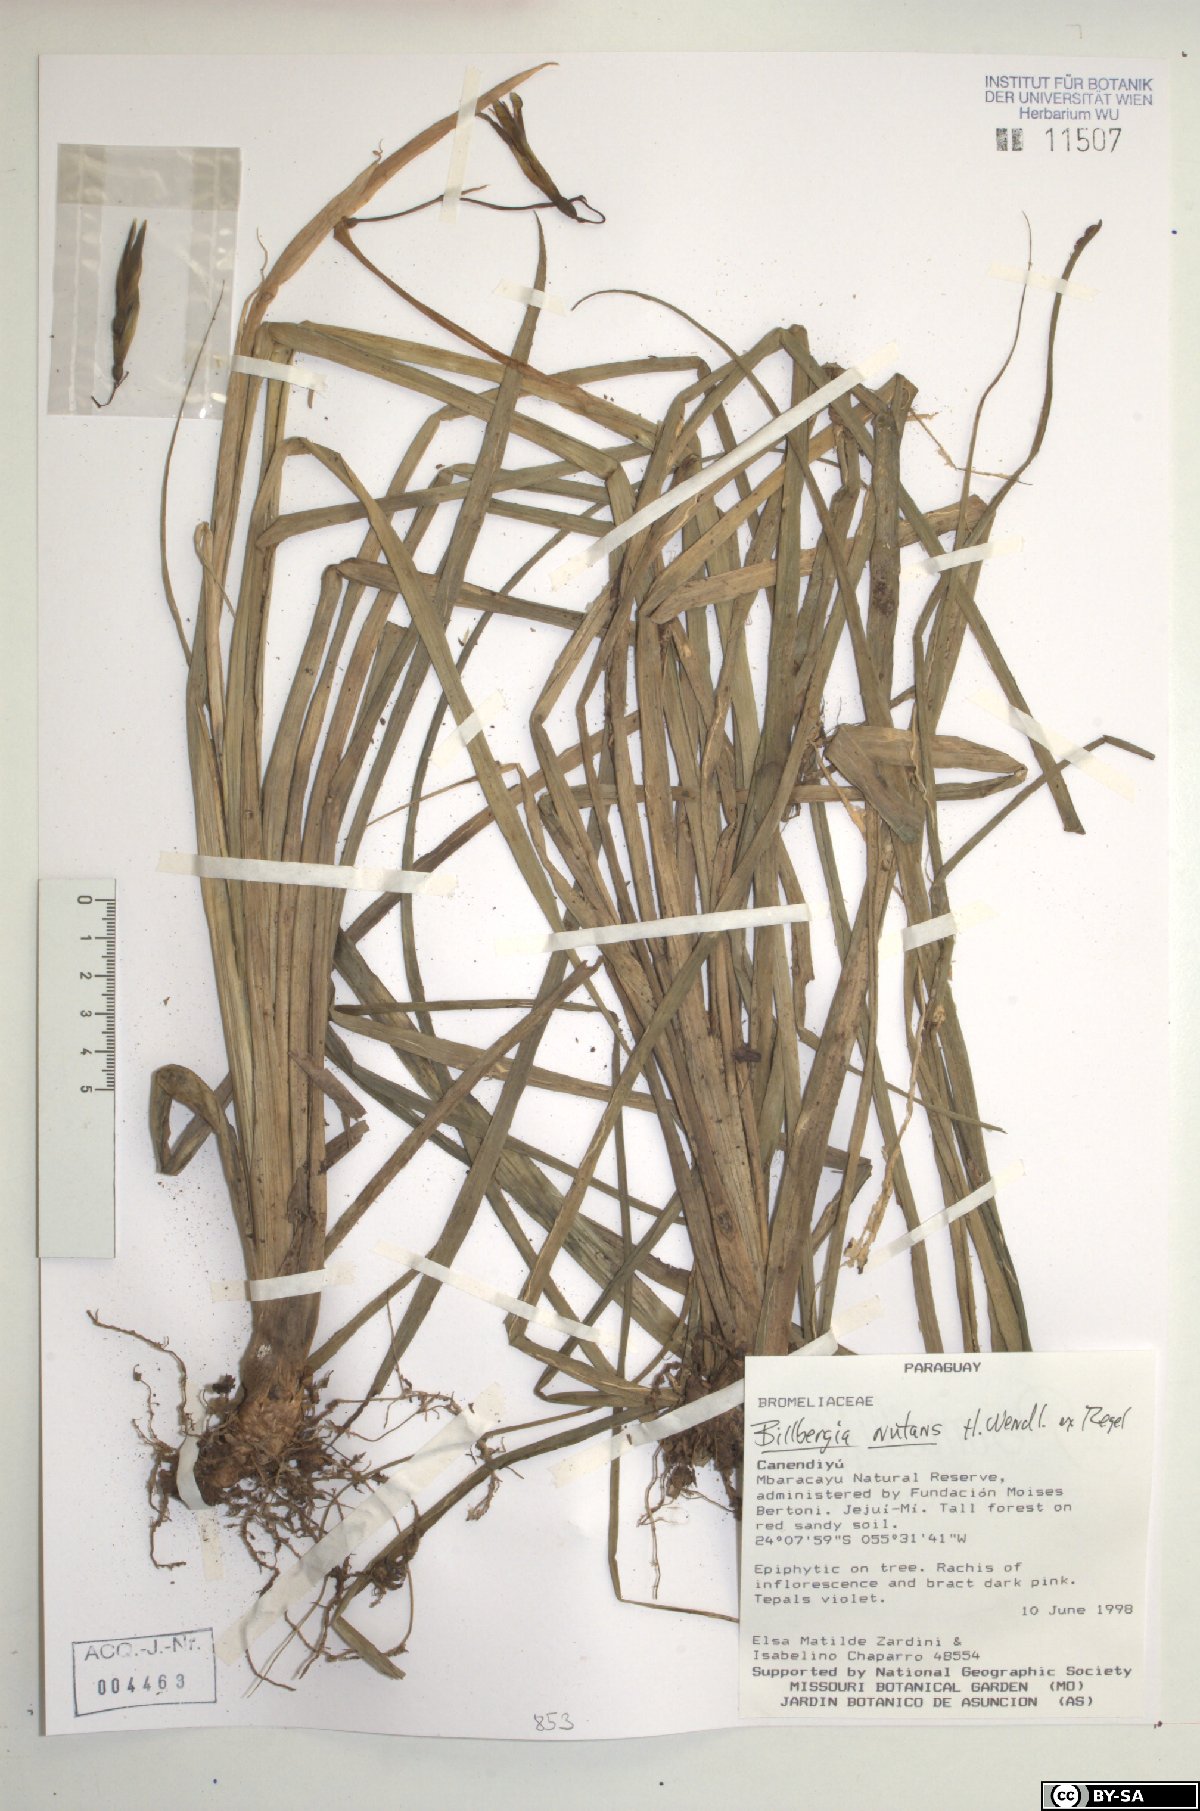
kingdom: Plantae
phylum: Tracheophyta
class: Liliopsida
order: Poales
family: Bromeliaceae
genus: Billbergia
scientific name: Billbergia nutans
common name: Friendship-plant
